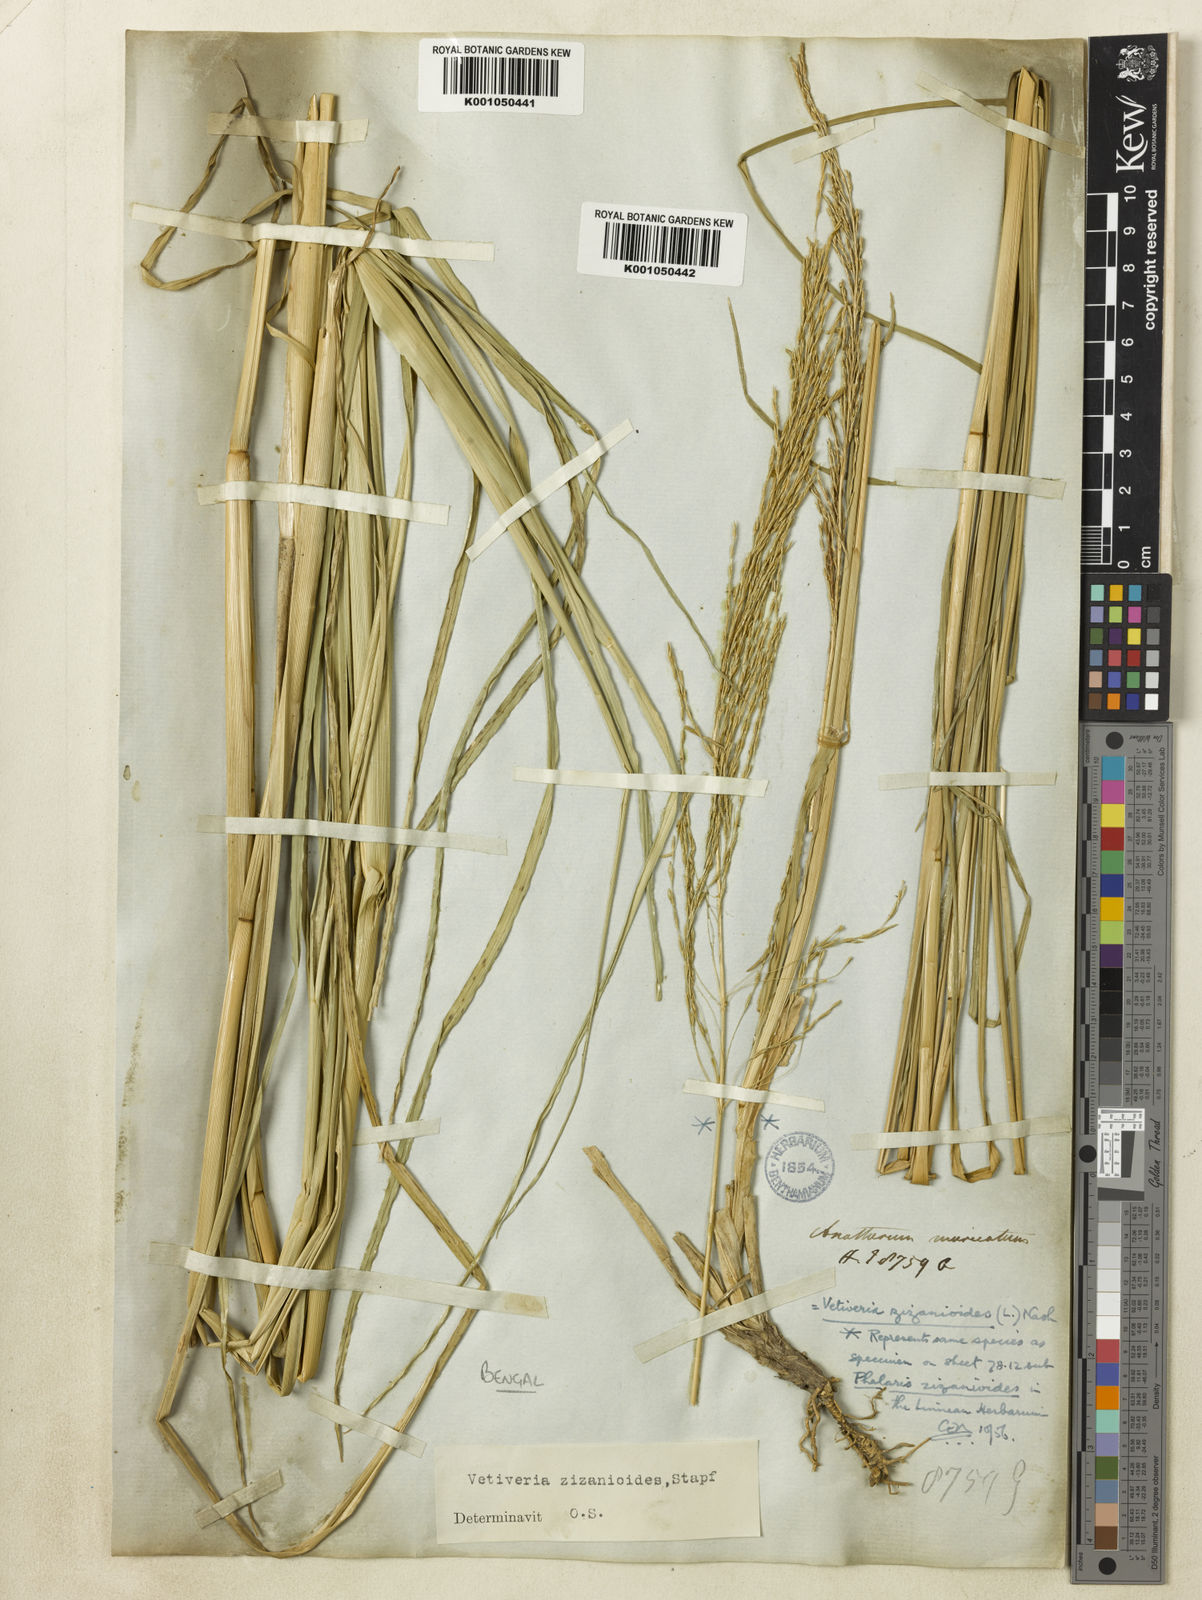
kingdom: Plantae
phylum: Tracheophyta
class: Liliopsida
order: Poales
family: Poaceae
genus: Vetiveria
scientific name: Vetiveria
